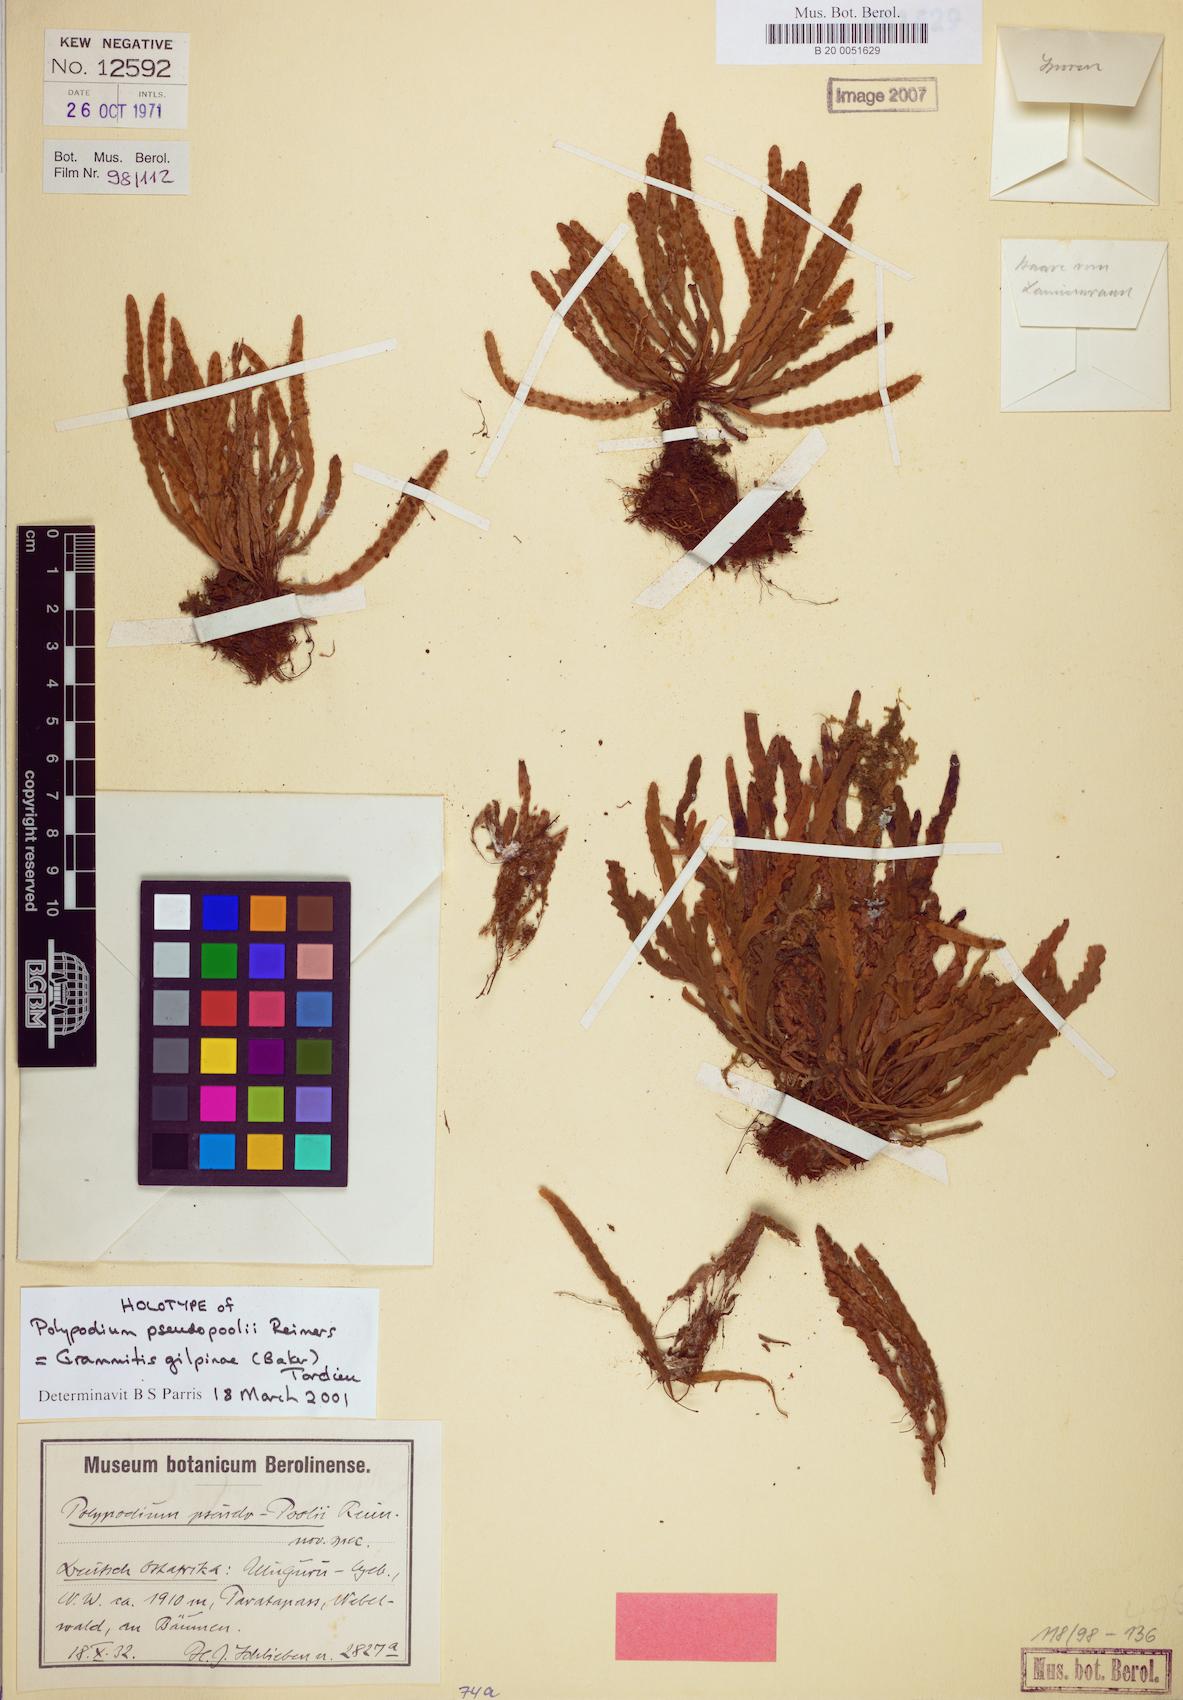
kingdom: Plantae
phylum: Tracheophyta
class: Polypodiopsida
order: Polypodiales
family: Polypodiaceae
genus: Parrisia
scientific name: Parrisia parietina
